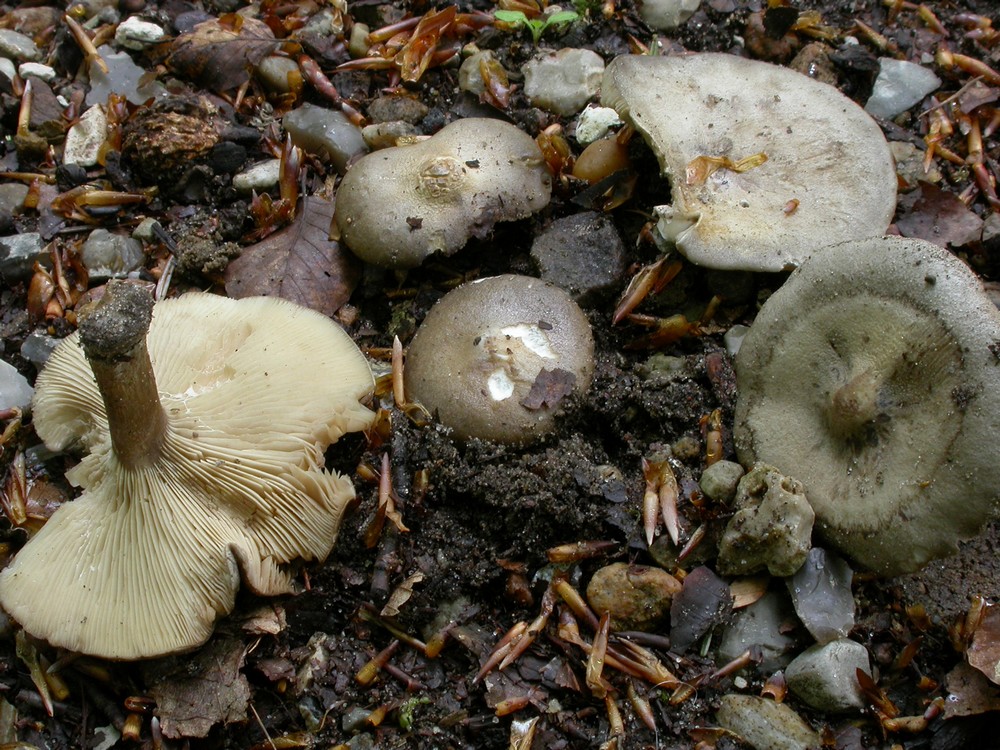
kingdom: Fungi
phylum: Basidiomycota
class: Agaricomycetes
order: Agaricales
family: Tricholomataceae
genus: Melanoleuca
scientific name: Melanoleuca
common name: munkehat
